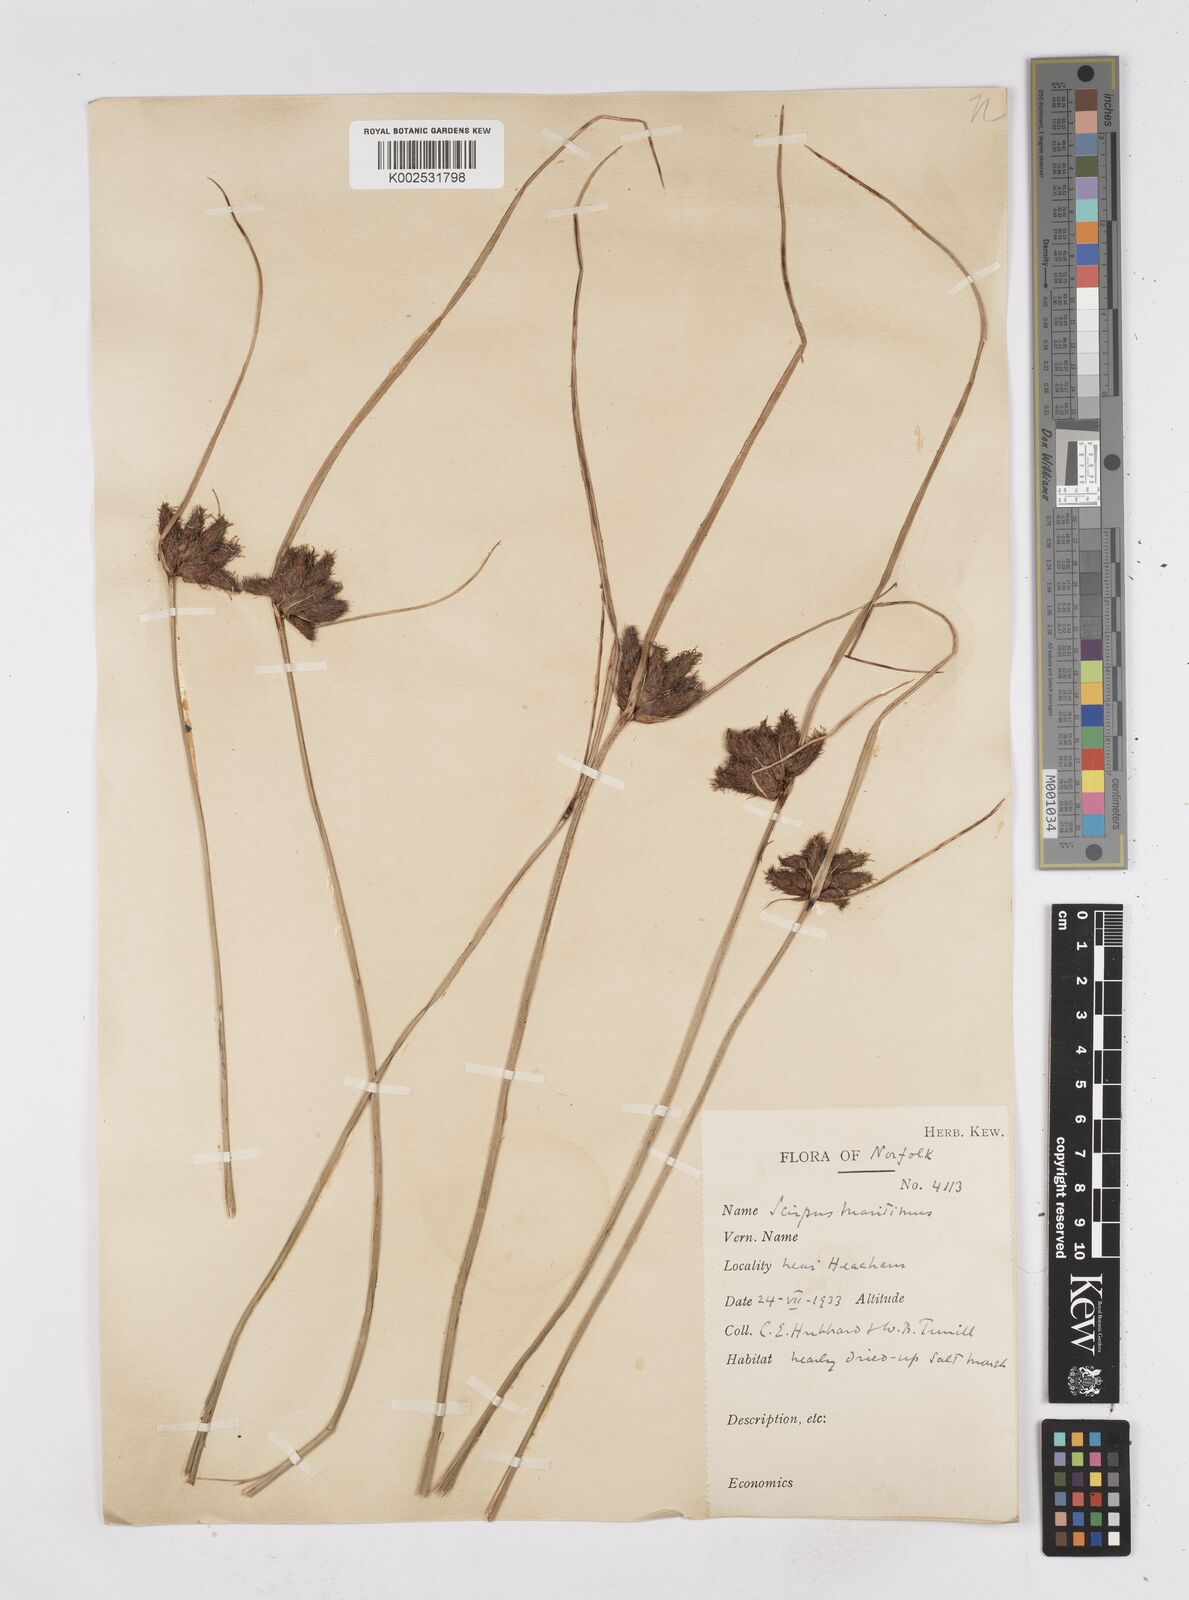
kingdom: Plantae
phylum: Tracheophyta
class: Liliopsida
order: Poales
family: Cyperaceae
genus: Bolboschoenus
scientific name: Bolboschoenus maritimus
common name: Sea club-rush
